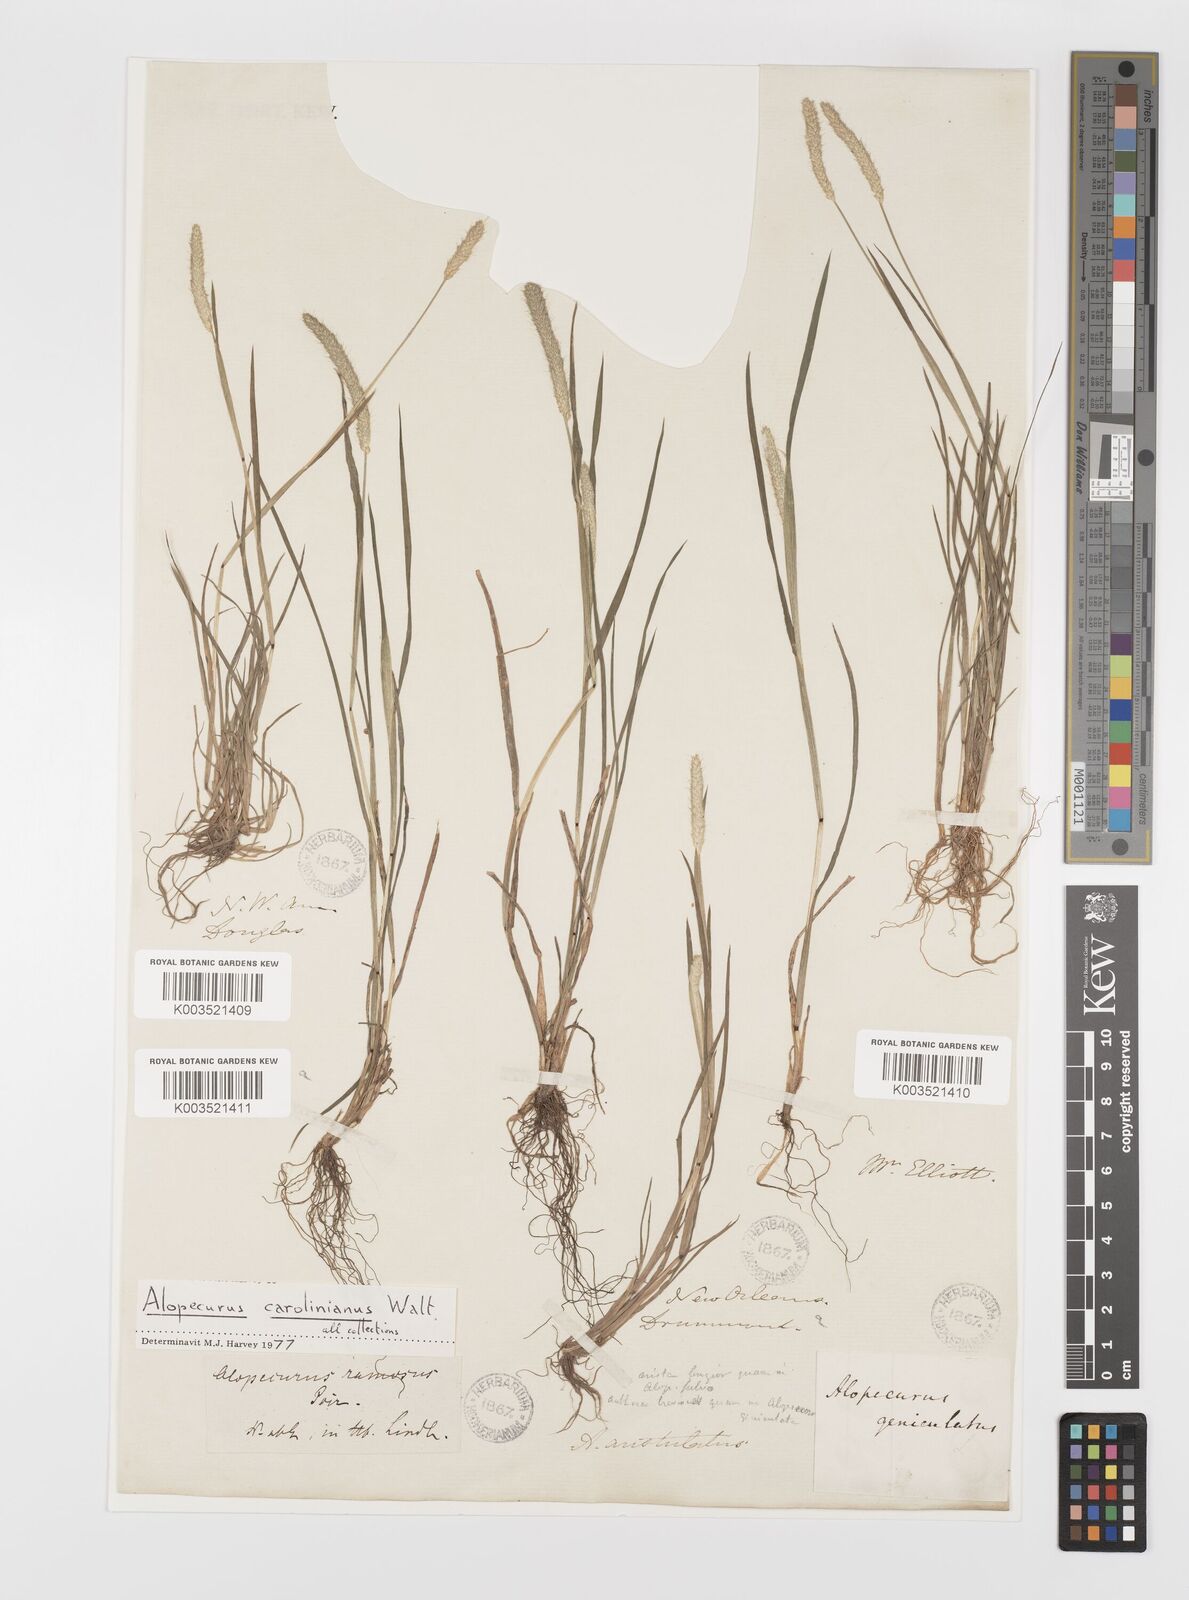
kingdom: Plantae
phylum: Tracheophyta
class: Liliopsida
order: Poales
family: Poaceae
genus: Alopecurus
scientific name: Alopecurus carolinianus
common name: Tufted foxtail
